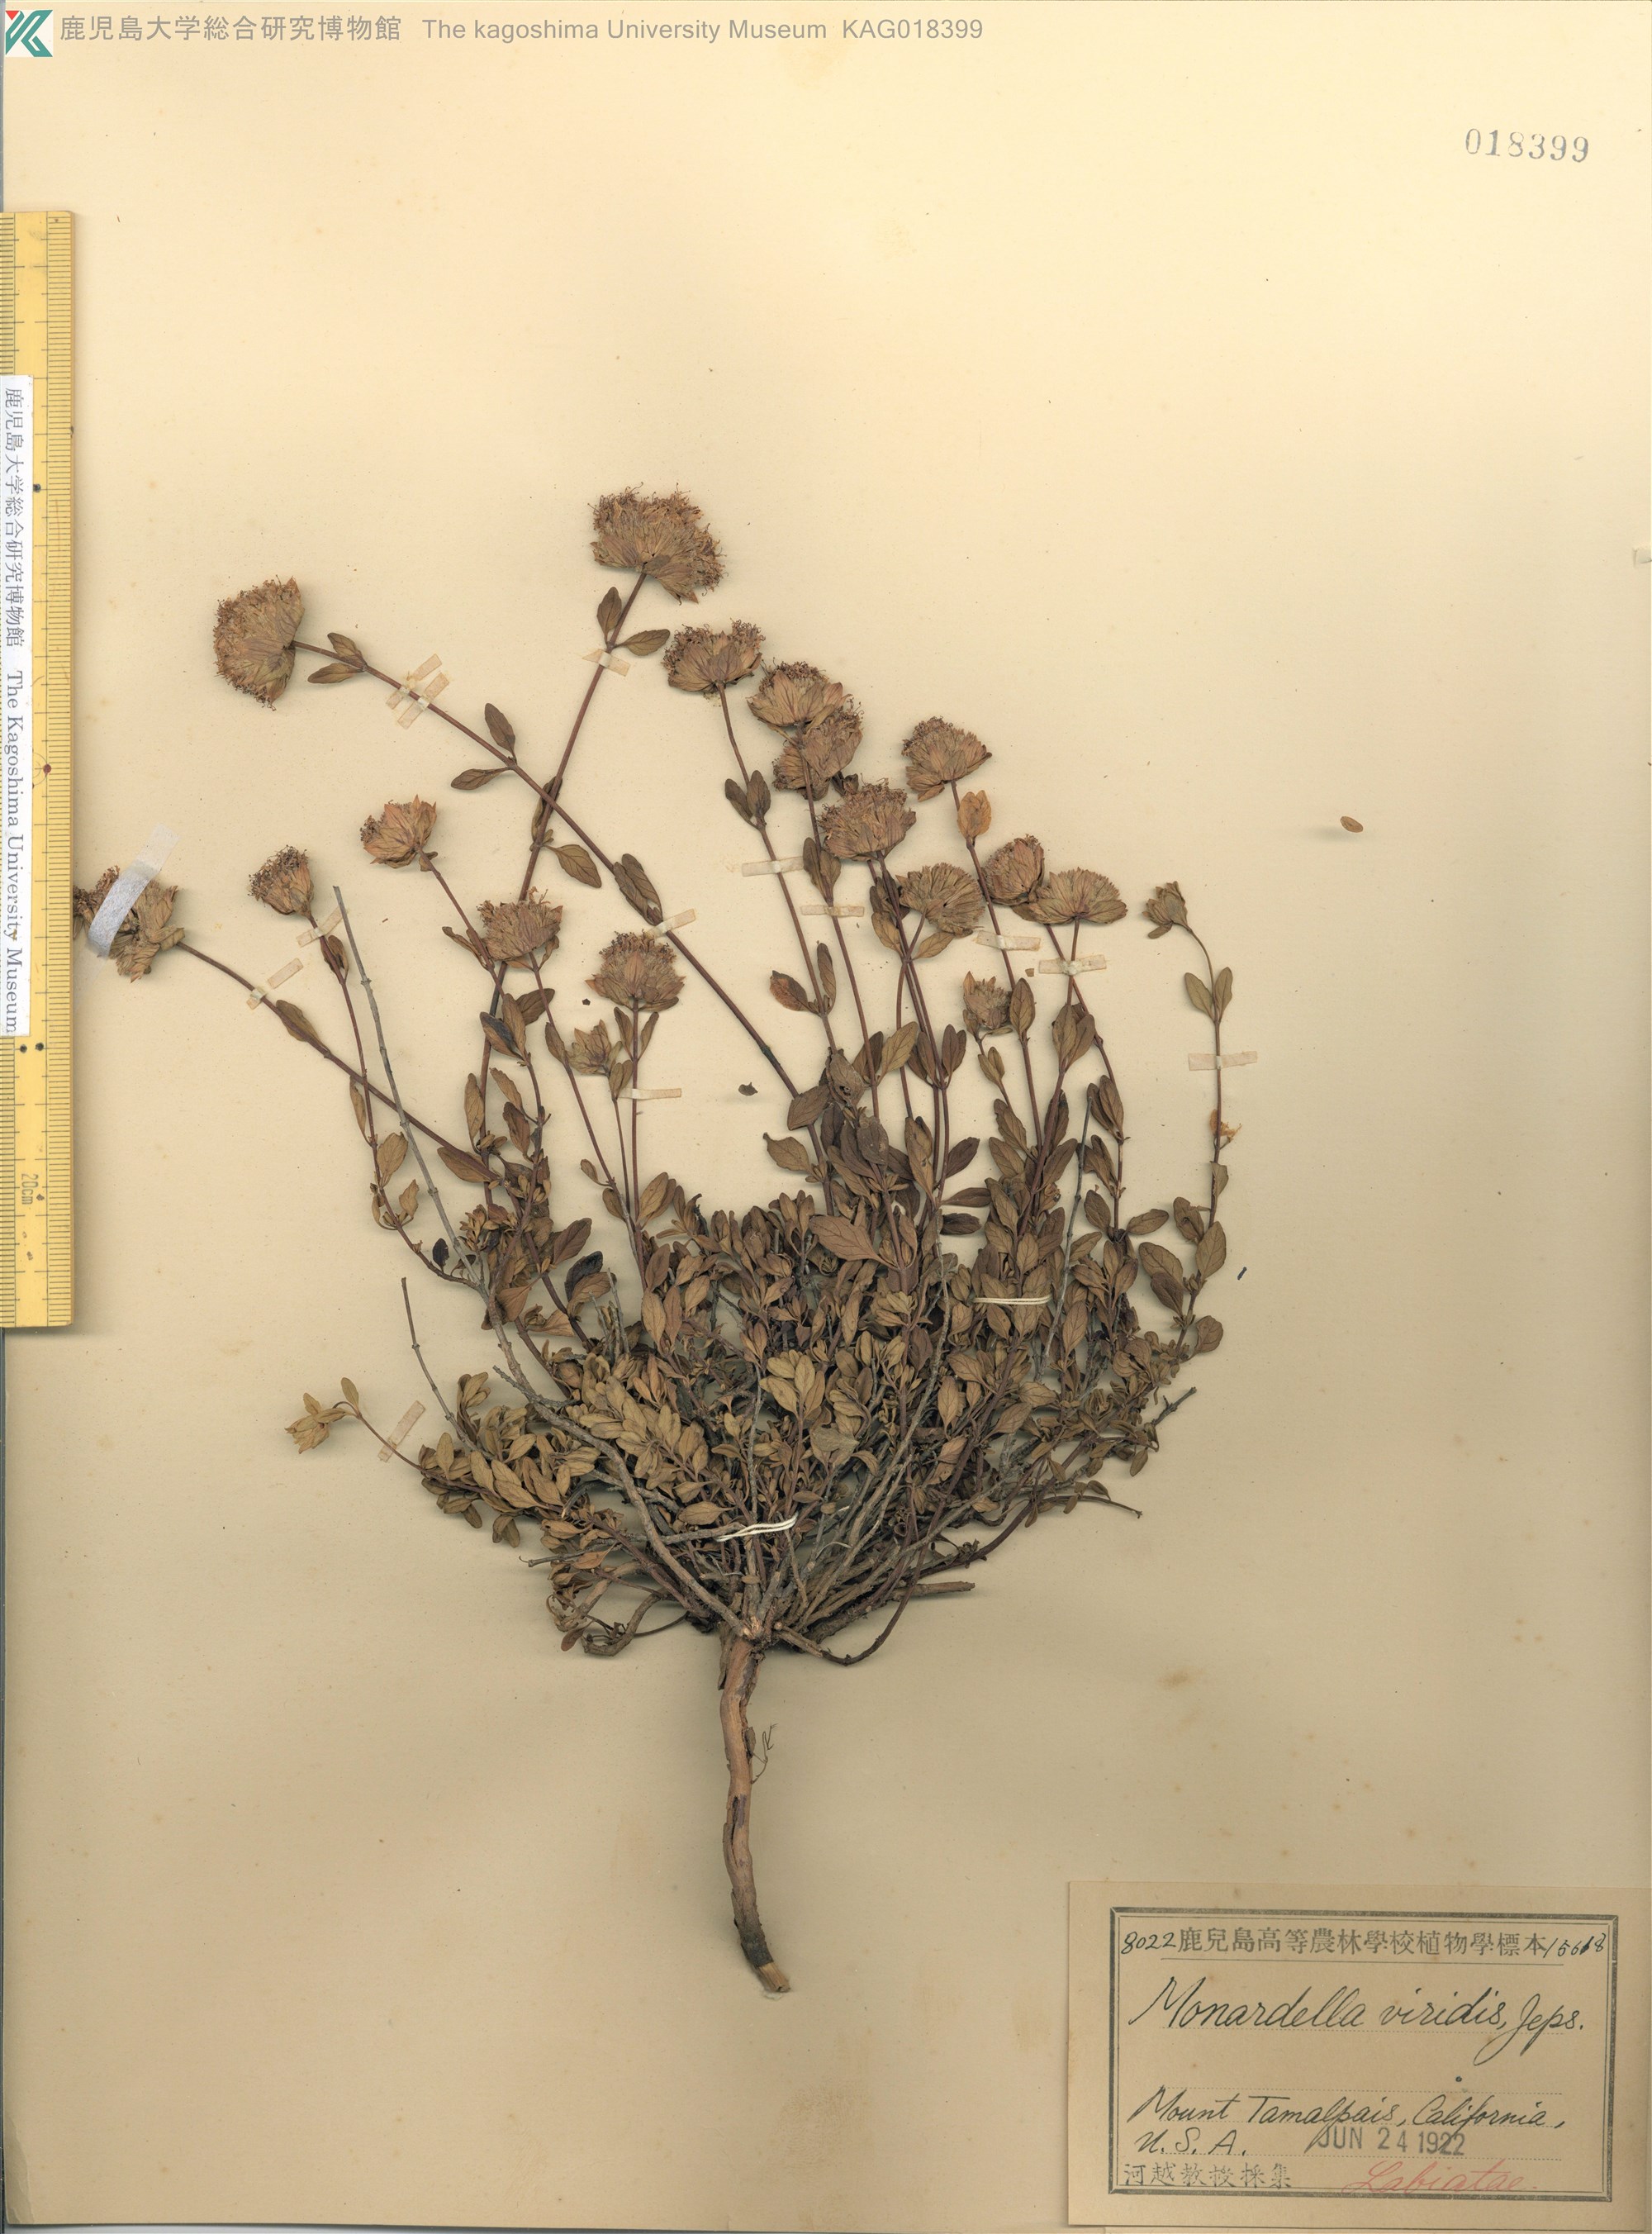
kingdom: Plantae
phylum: Tracheophyta
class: Magnoliopsida
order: Lamiales
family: Lamiaceae
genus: Monardella
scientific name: Monardella viridis
